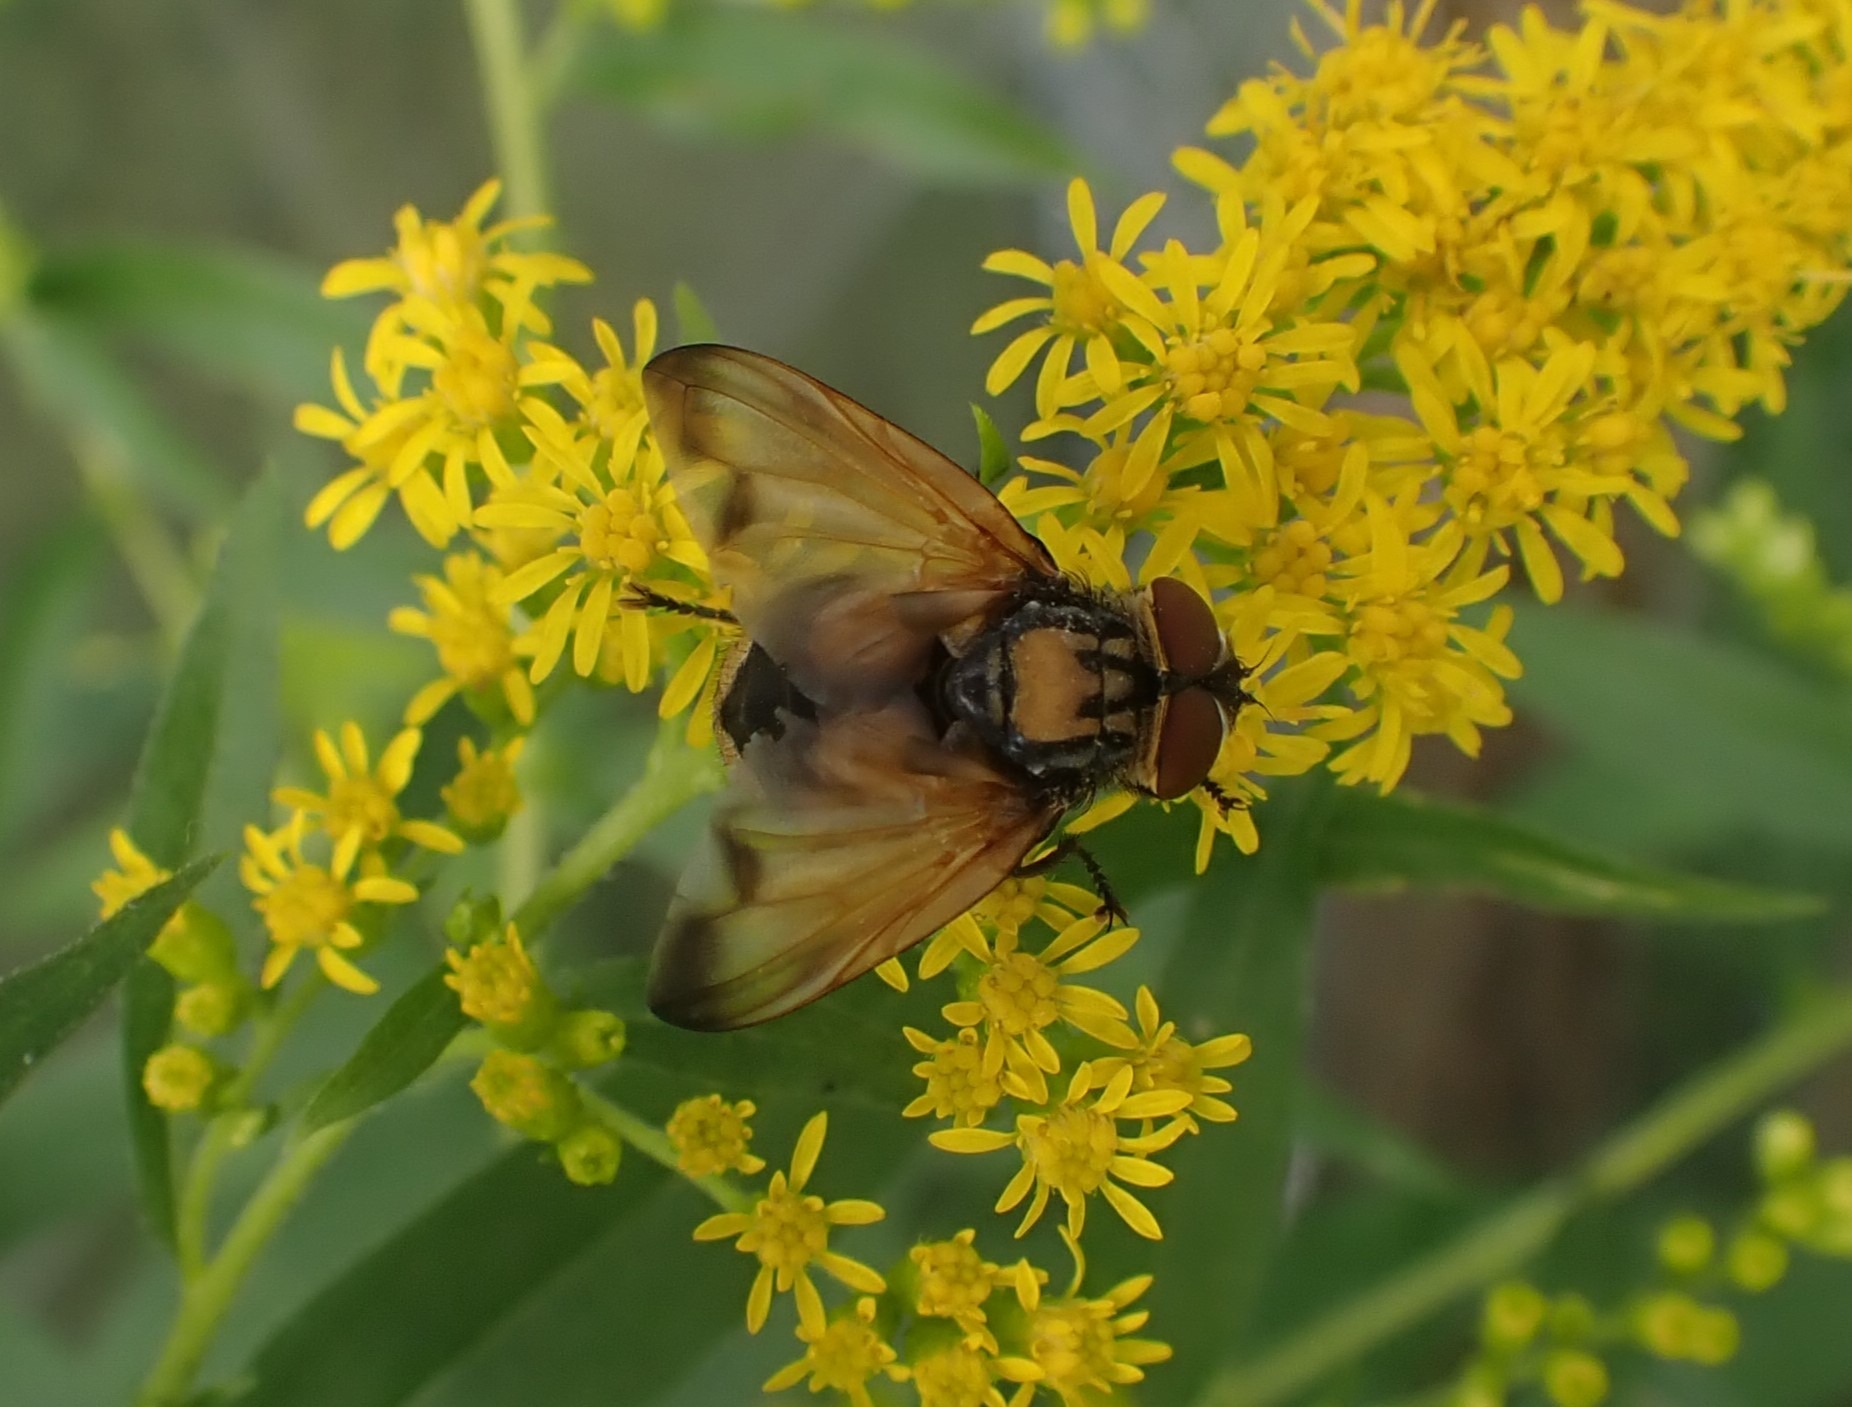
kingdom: Animalia
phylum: Arthropoda
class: Insecta
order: Diptera
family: Tachinidae
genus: Phasia
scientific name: Phasia aurigera
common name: Gylden pragtsnylteflue
